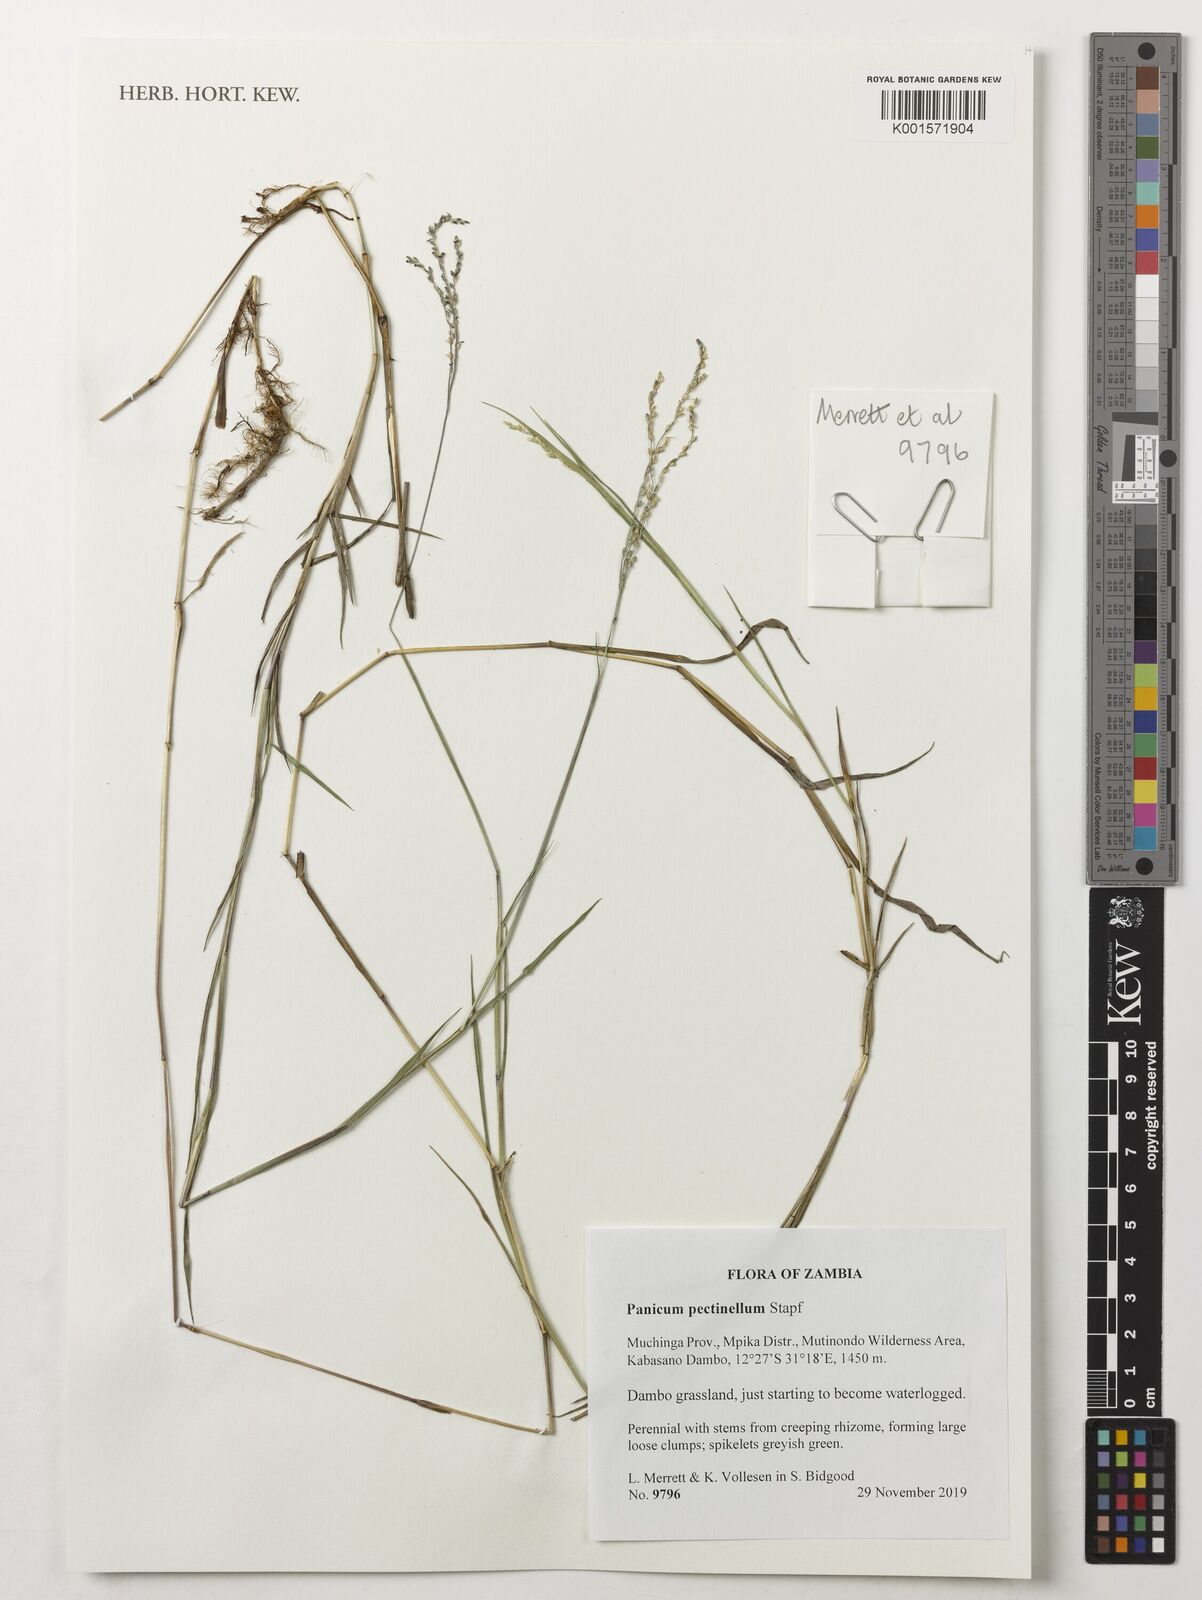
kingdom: Plantae
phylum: Tracheophyta
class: Liliopsida
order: Poales
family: Poaceae
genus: Adenochloa
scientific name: Adenochloa pectinella
